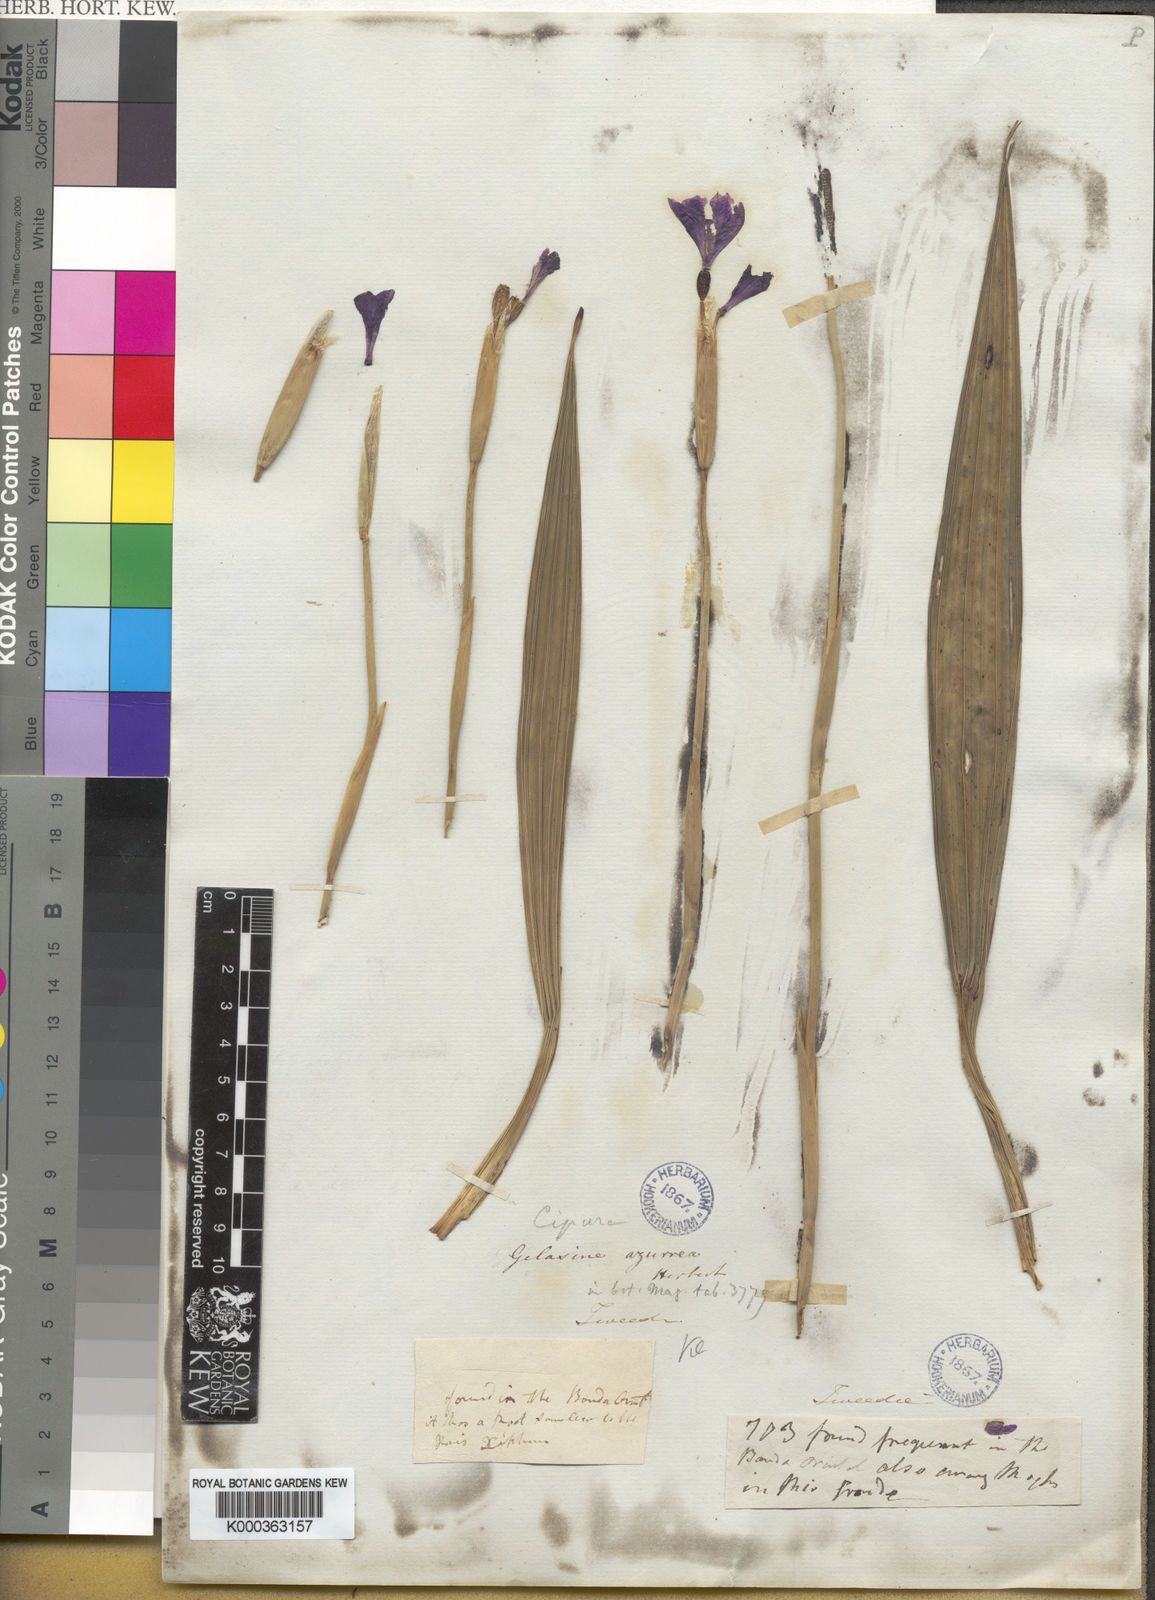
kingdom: Plantae
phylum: Tracheophyta
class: Liliopsida
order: Asparagales
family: Iridaceae
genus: Calydorea
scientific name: Calydorea azurea
